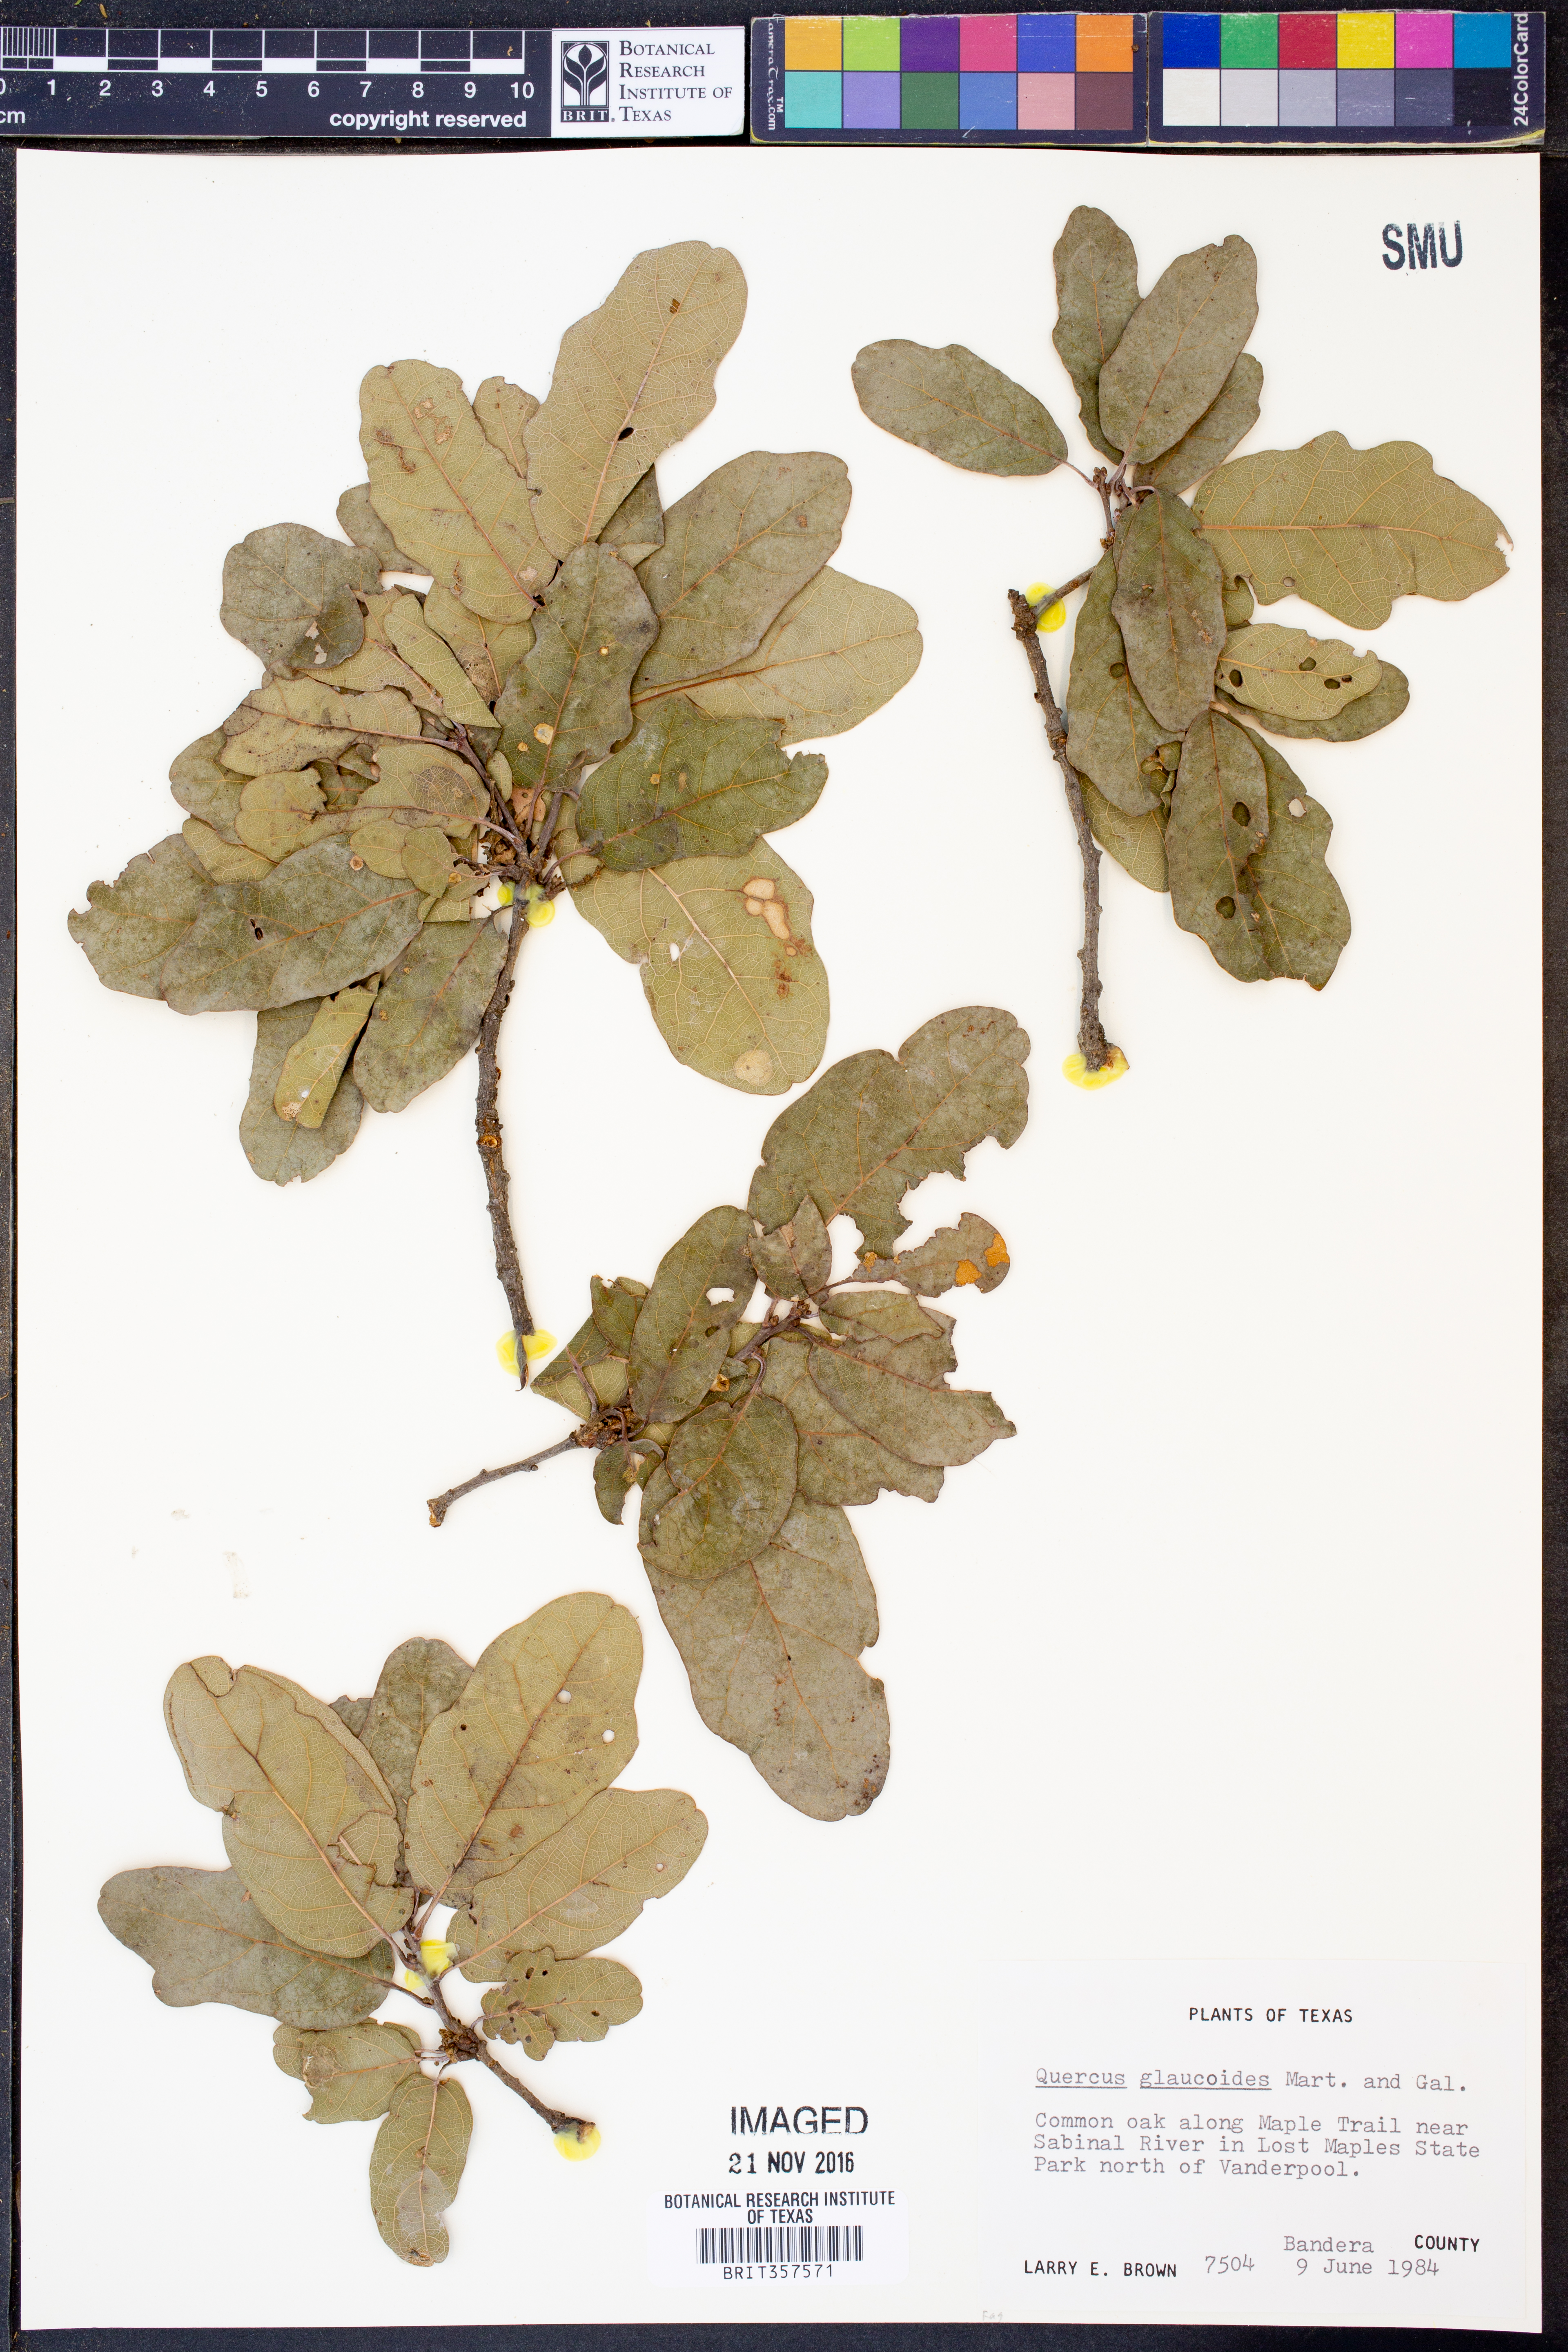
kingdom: Plantae
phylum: Tracheophyta
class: Magnoliopsida
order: Fagales
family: Fagaceae
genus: Quercus
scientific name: Quercus glaucoides
